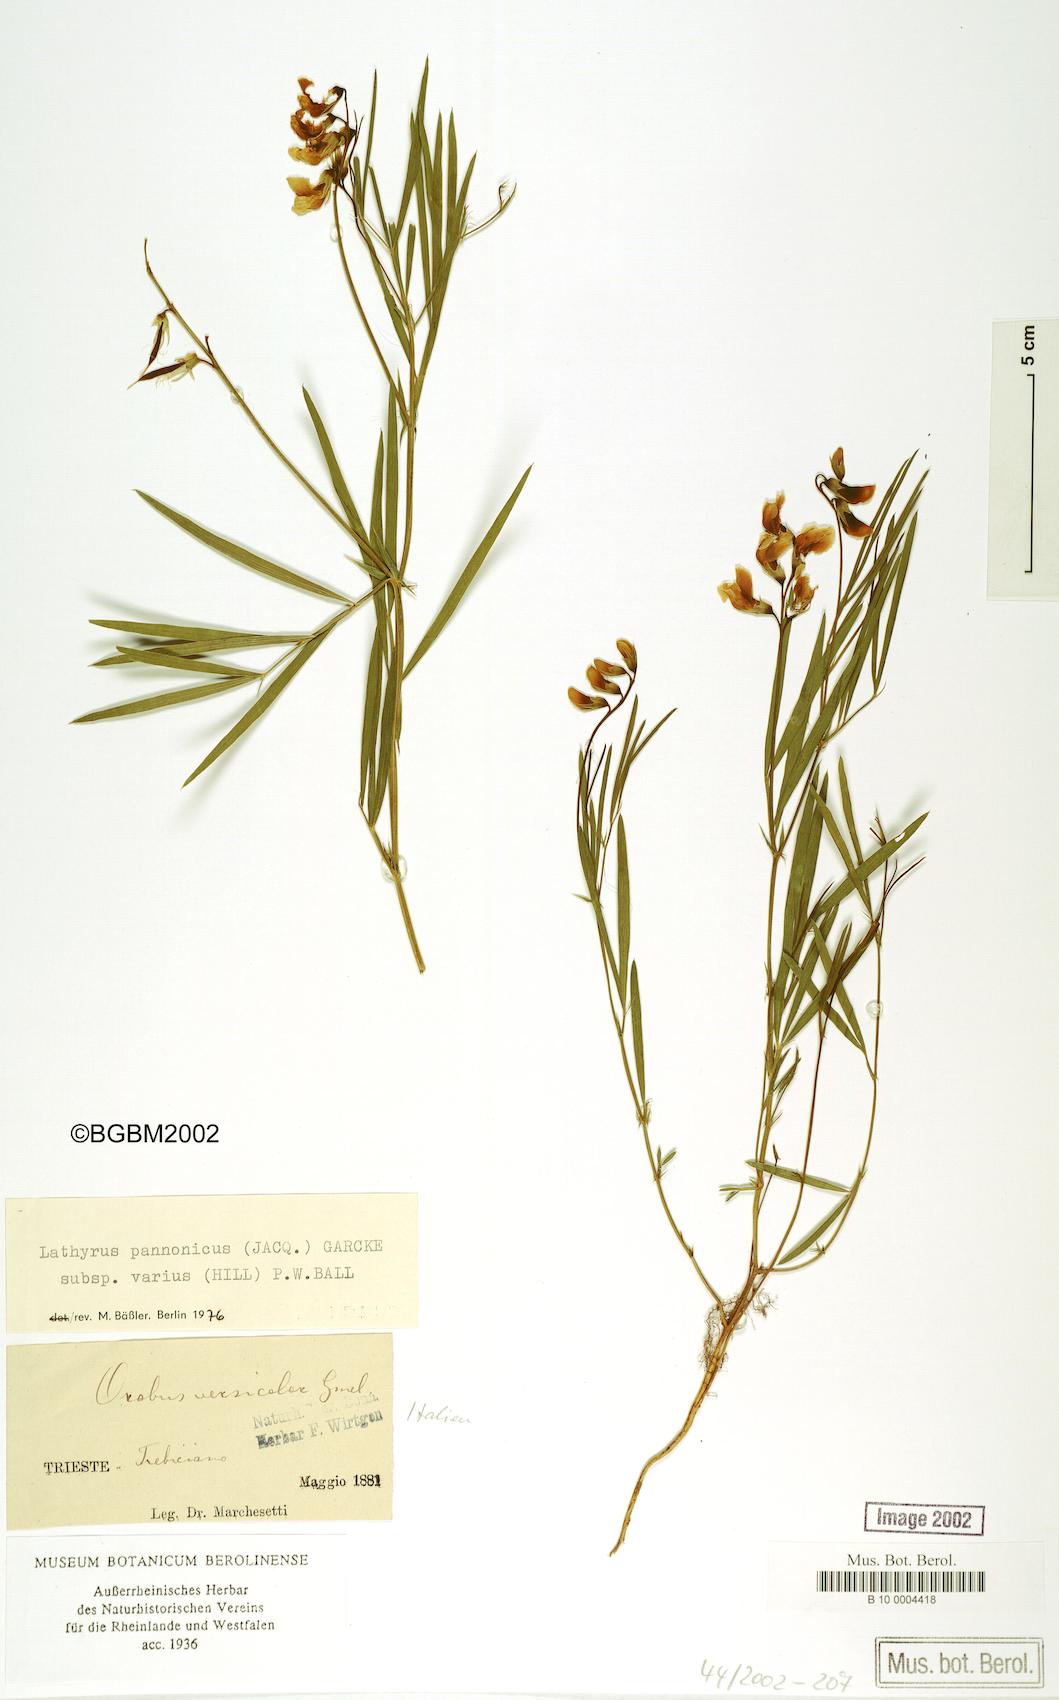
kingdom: Plantae
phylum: Tracheophyta
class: Magnoliopsida
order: Fabales
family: Fabaceae
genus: Lathyrus
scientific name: Lathyrus pannonicus
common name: Pea
